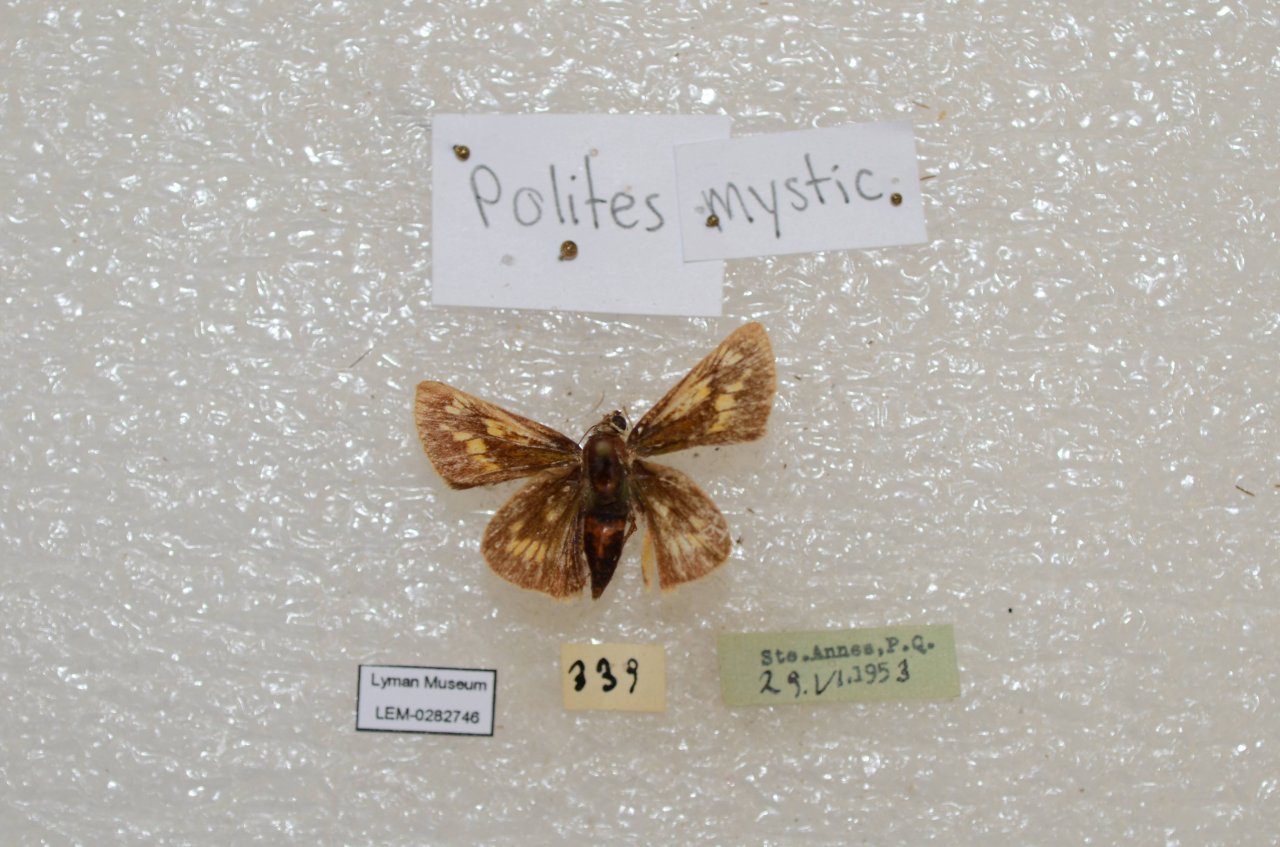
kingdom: Animalia
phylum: Arthropoda
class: Insecta
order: Lepidoptera
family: Hesperiidae
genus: Polites
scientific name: Polites
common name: Long Dash Skipper
